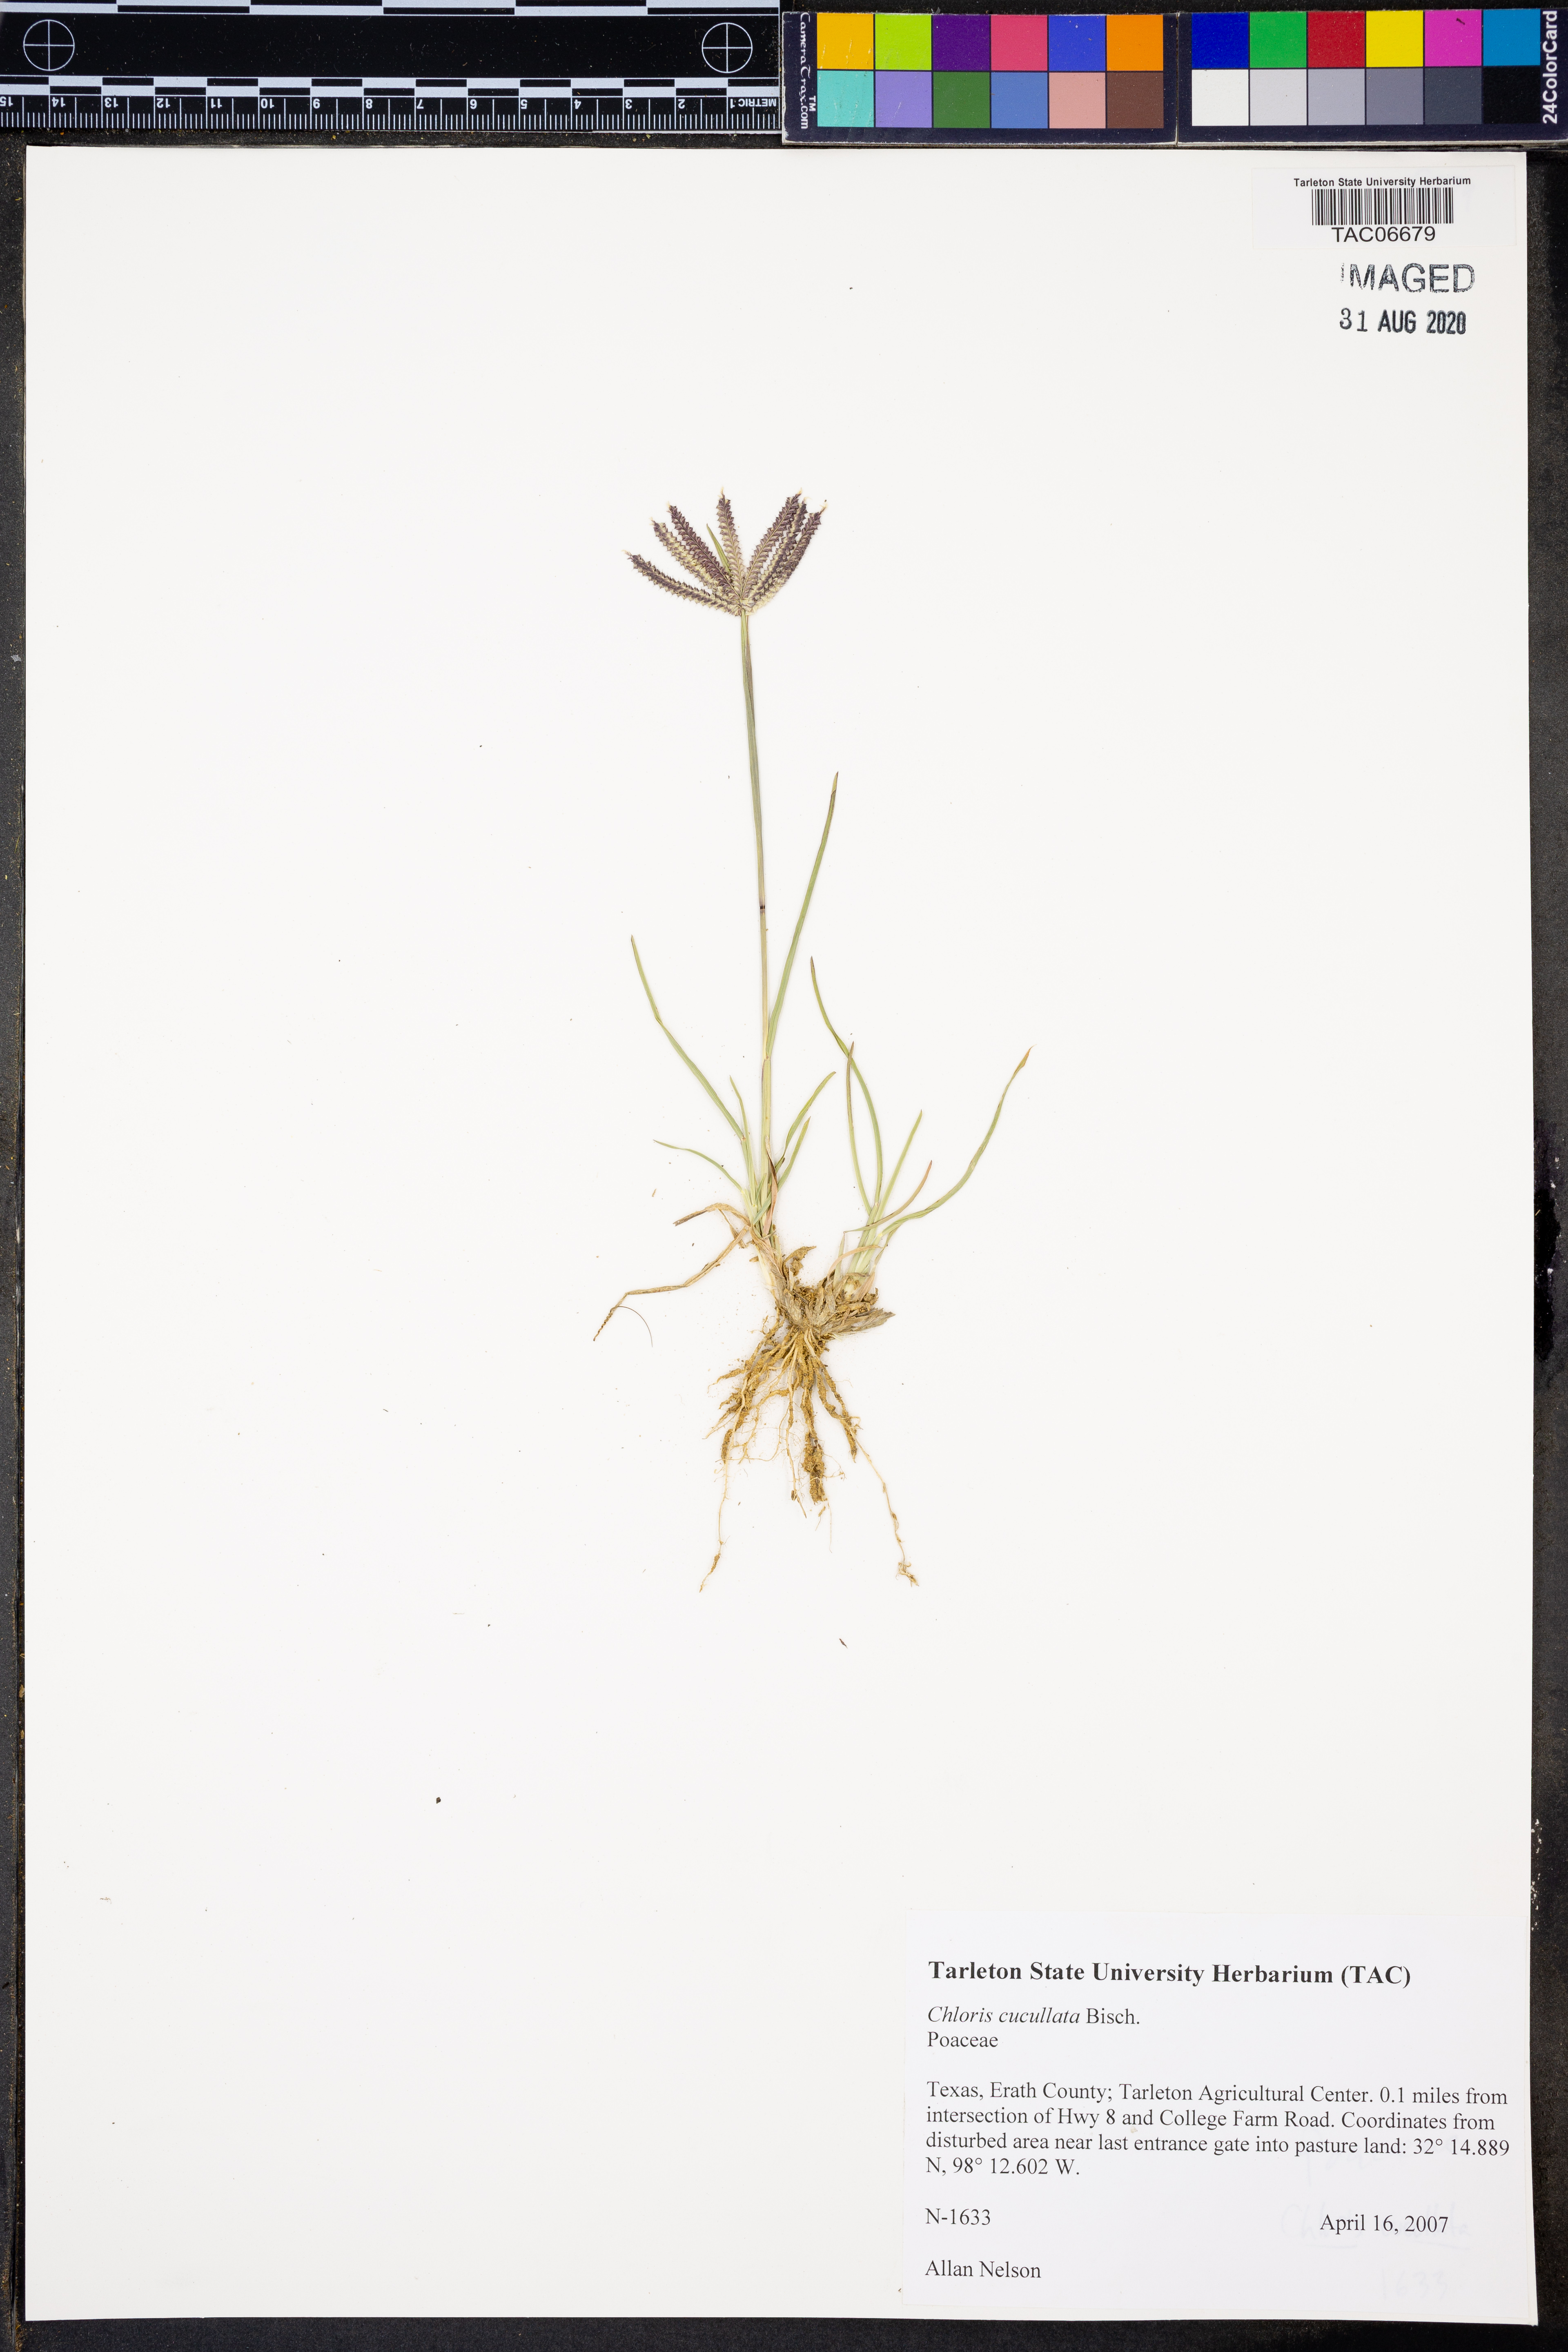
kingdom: Plantae
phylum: Tracheophyta
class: Liliopsida
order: Poales
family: Poaceae
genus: Chloris
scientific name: Chloris cucullata
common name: Hooded windmill grass
